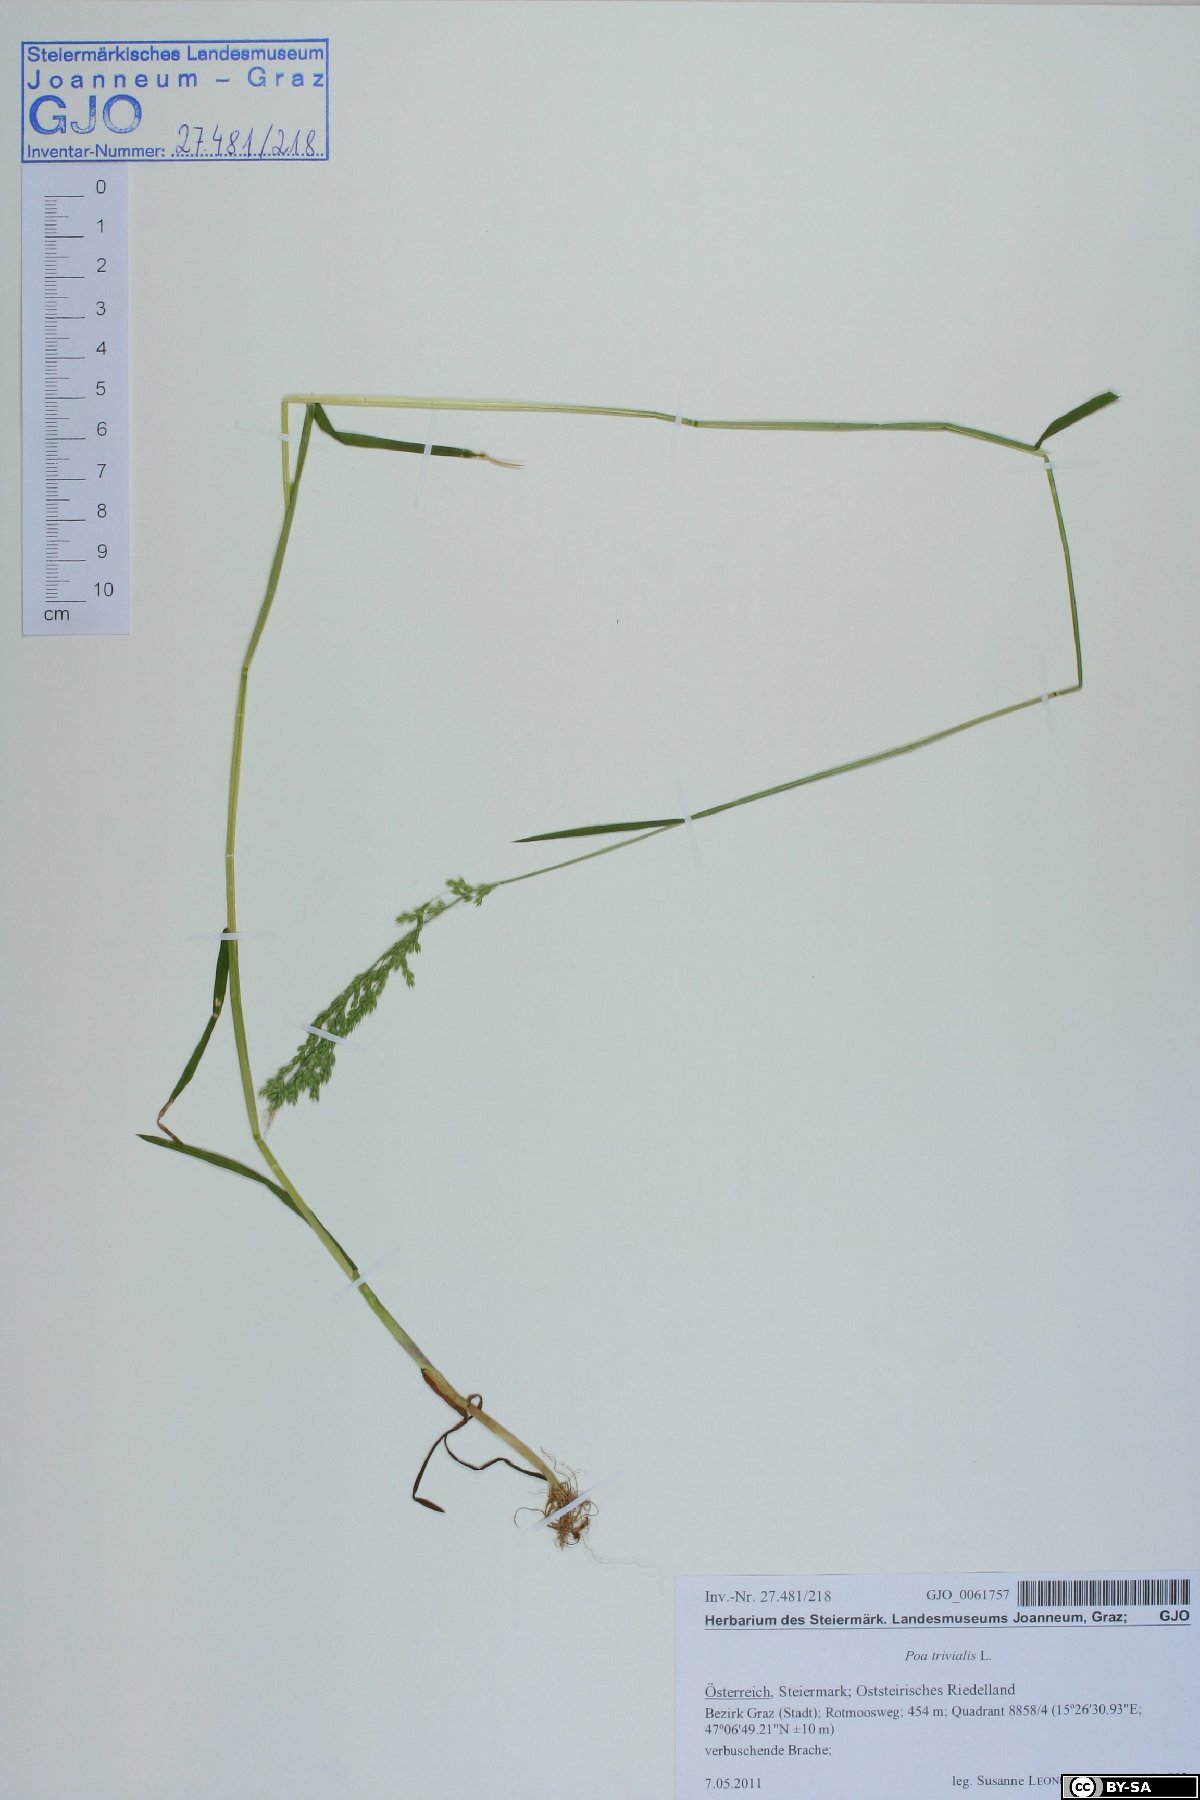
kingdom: Plantae
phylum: Tracheophyta
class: Liliopsida
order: Poales
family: Poaceae
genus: Poa
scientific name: Poa trivialis
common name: Rough bluegrass
